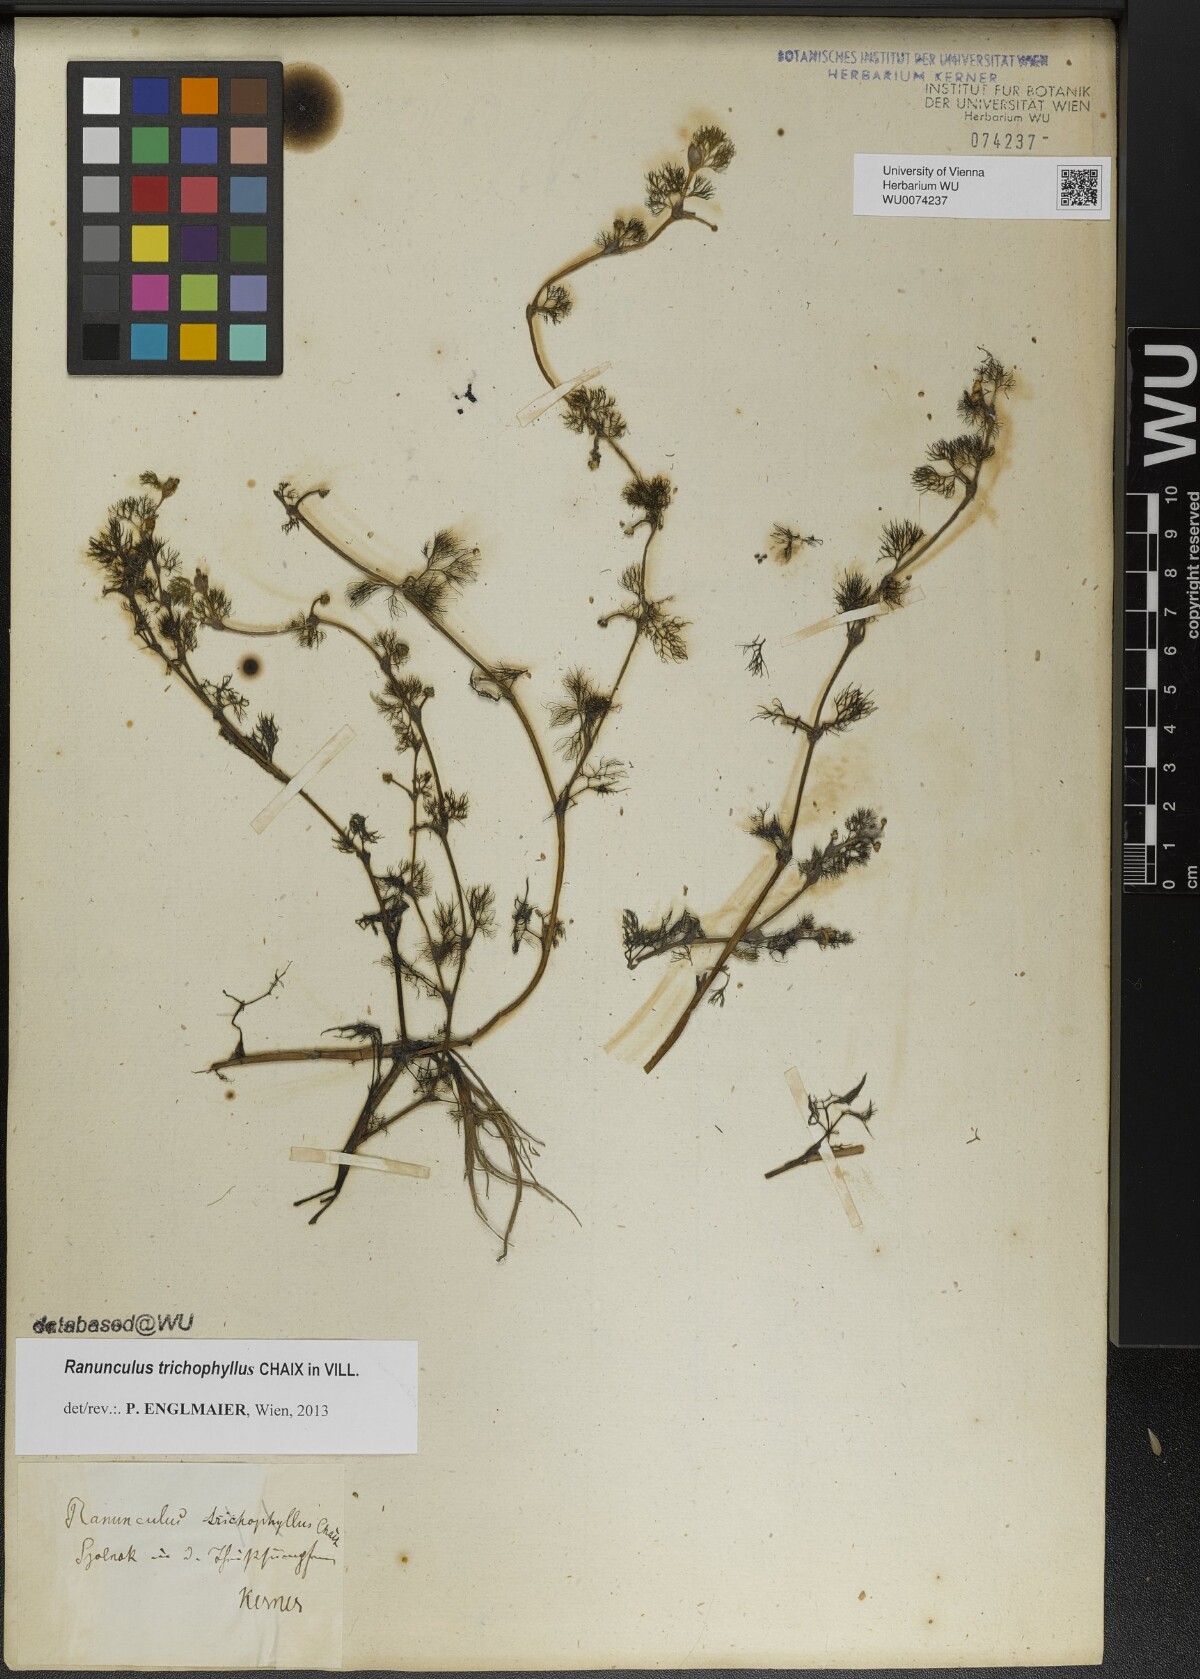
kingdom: Plantae
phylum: Tracheophyta
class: Magnoliopsida
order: Ranunculales
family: Ranunculaceae
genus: Ranunculus
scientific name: Ranunculus trichophyllus
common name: Thread-leaved water-crowfoot
